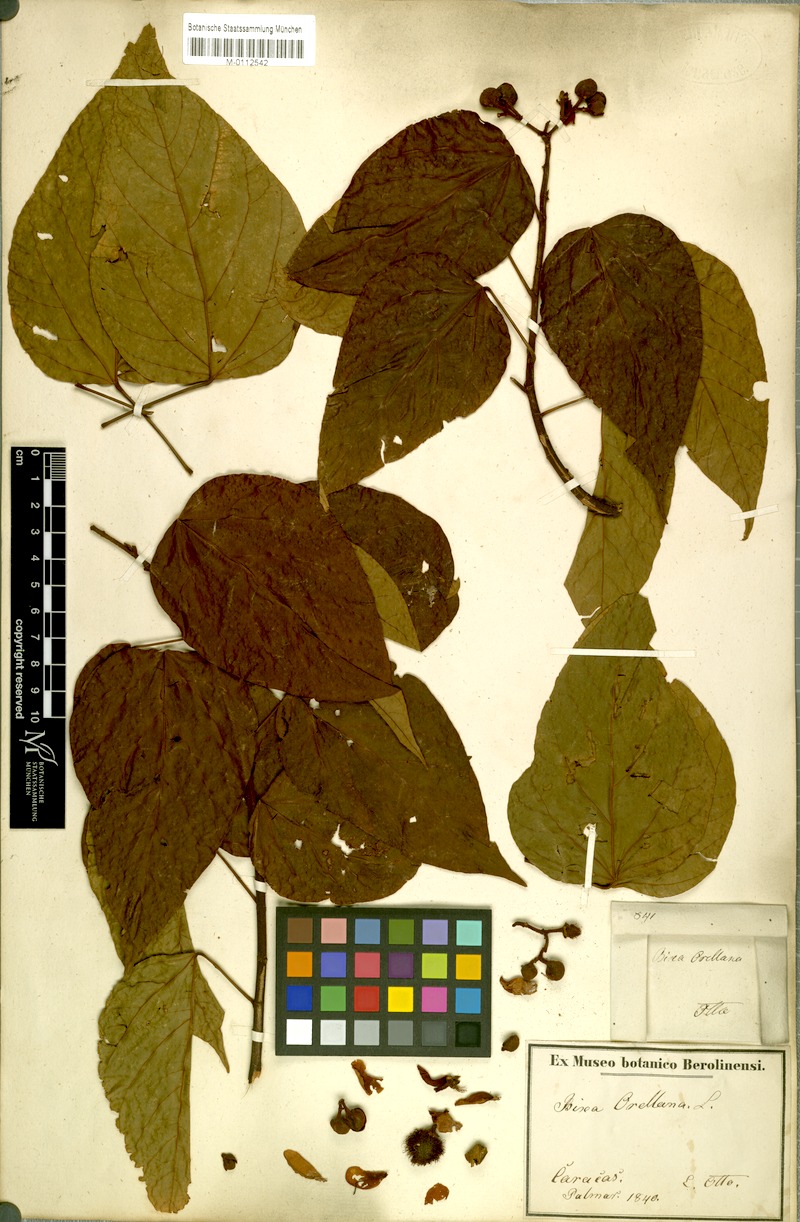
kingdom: Plantae
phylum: Tracheophyta
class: Magnoliopsida
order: Malvales
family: Bixaceae
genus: Bixa
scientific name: Bixa orellana
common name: Lipsticktree
